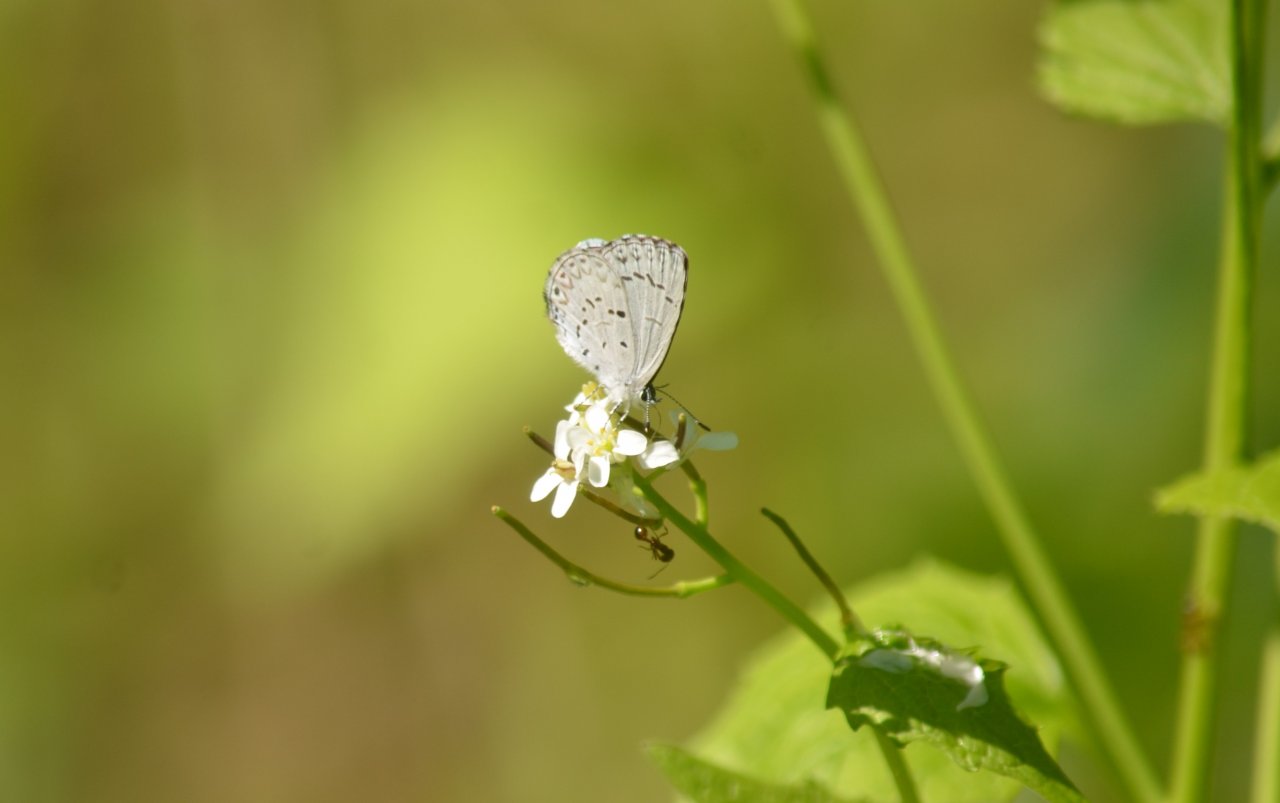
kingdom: Animalia
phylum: Arthropoda
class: Insecta
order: Lepidoptera
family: Lycaenidae
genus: Celastrina
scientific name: Celastrina
